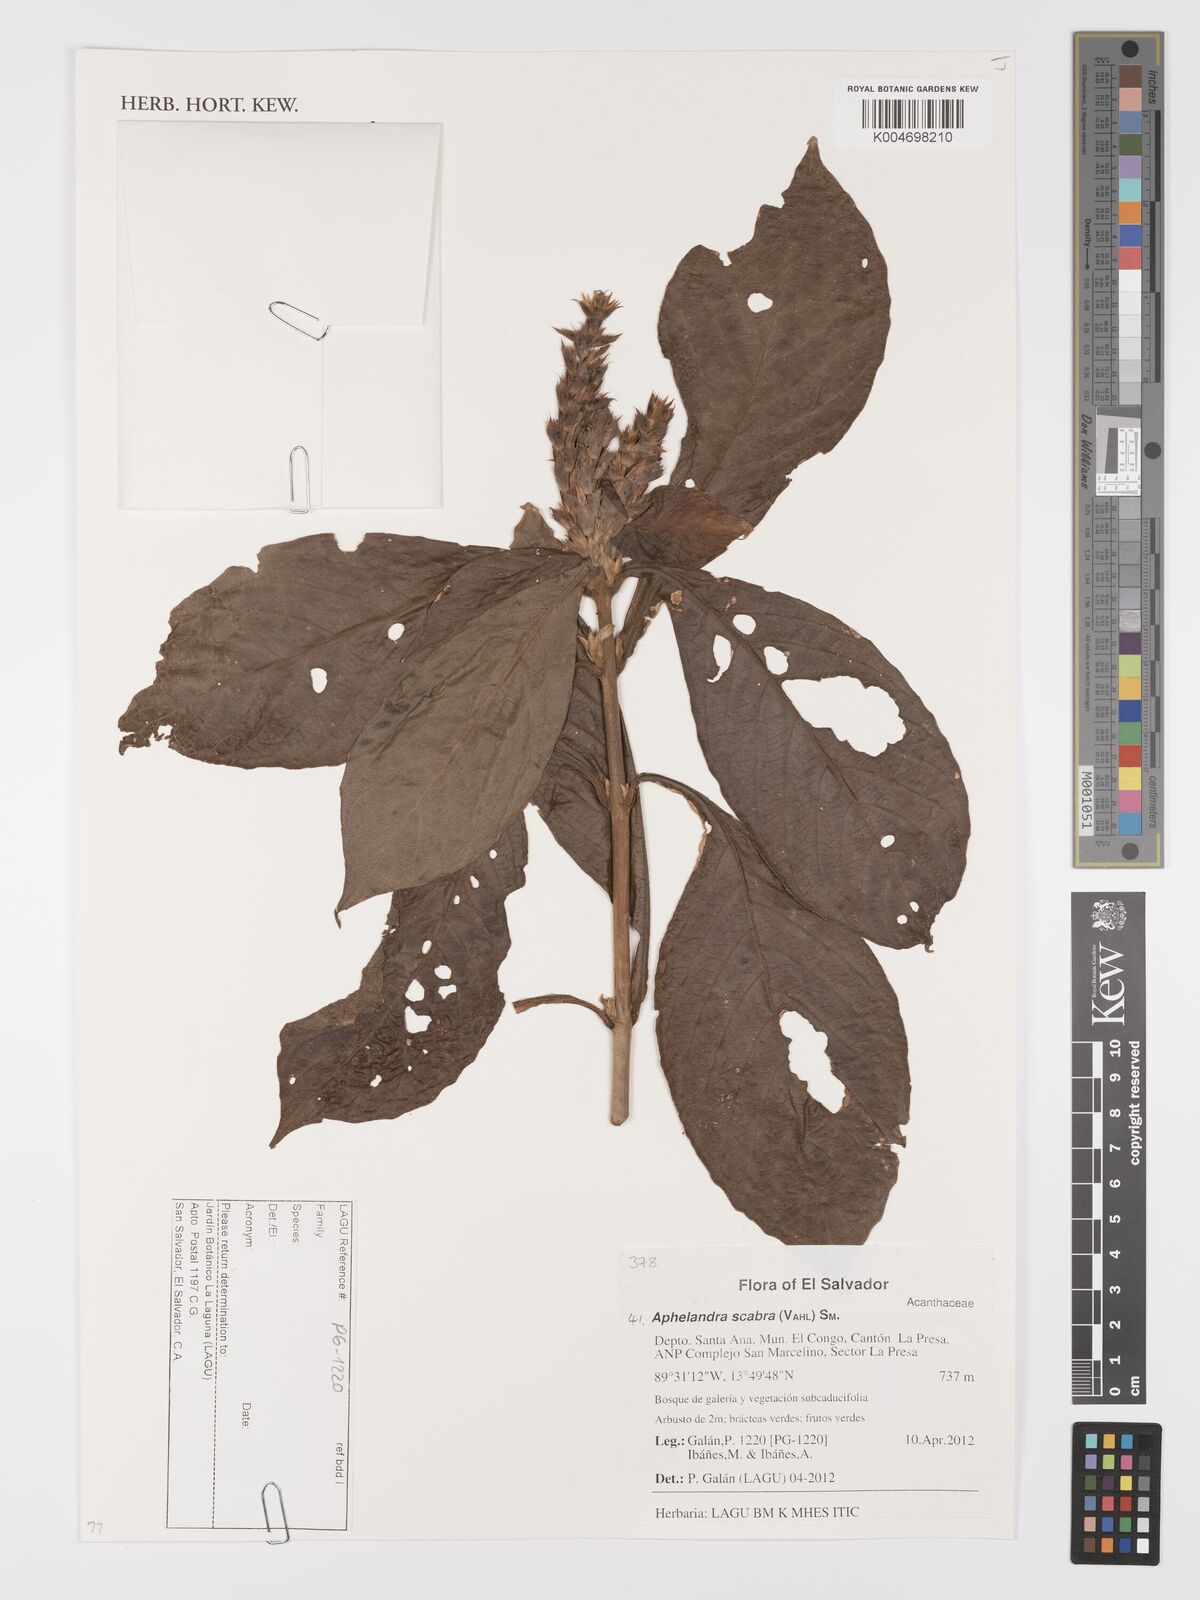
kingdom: Plantae
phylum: Tracheophyta
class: Magnoliopsida
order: Lamiales
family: Acanthaceae
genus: Aphelandra
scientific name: Aphelandra scabra
